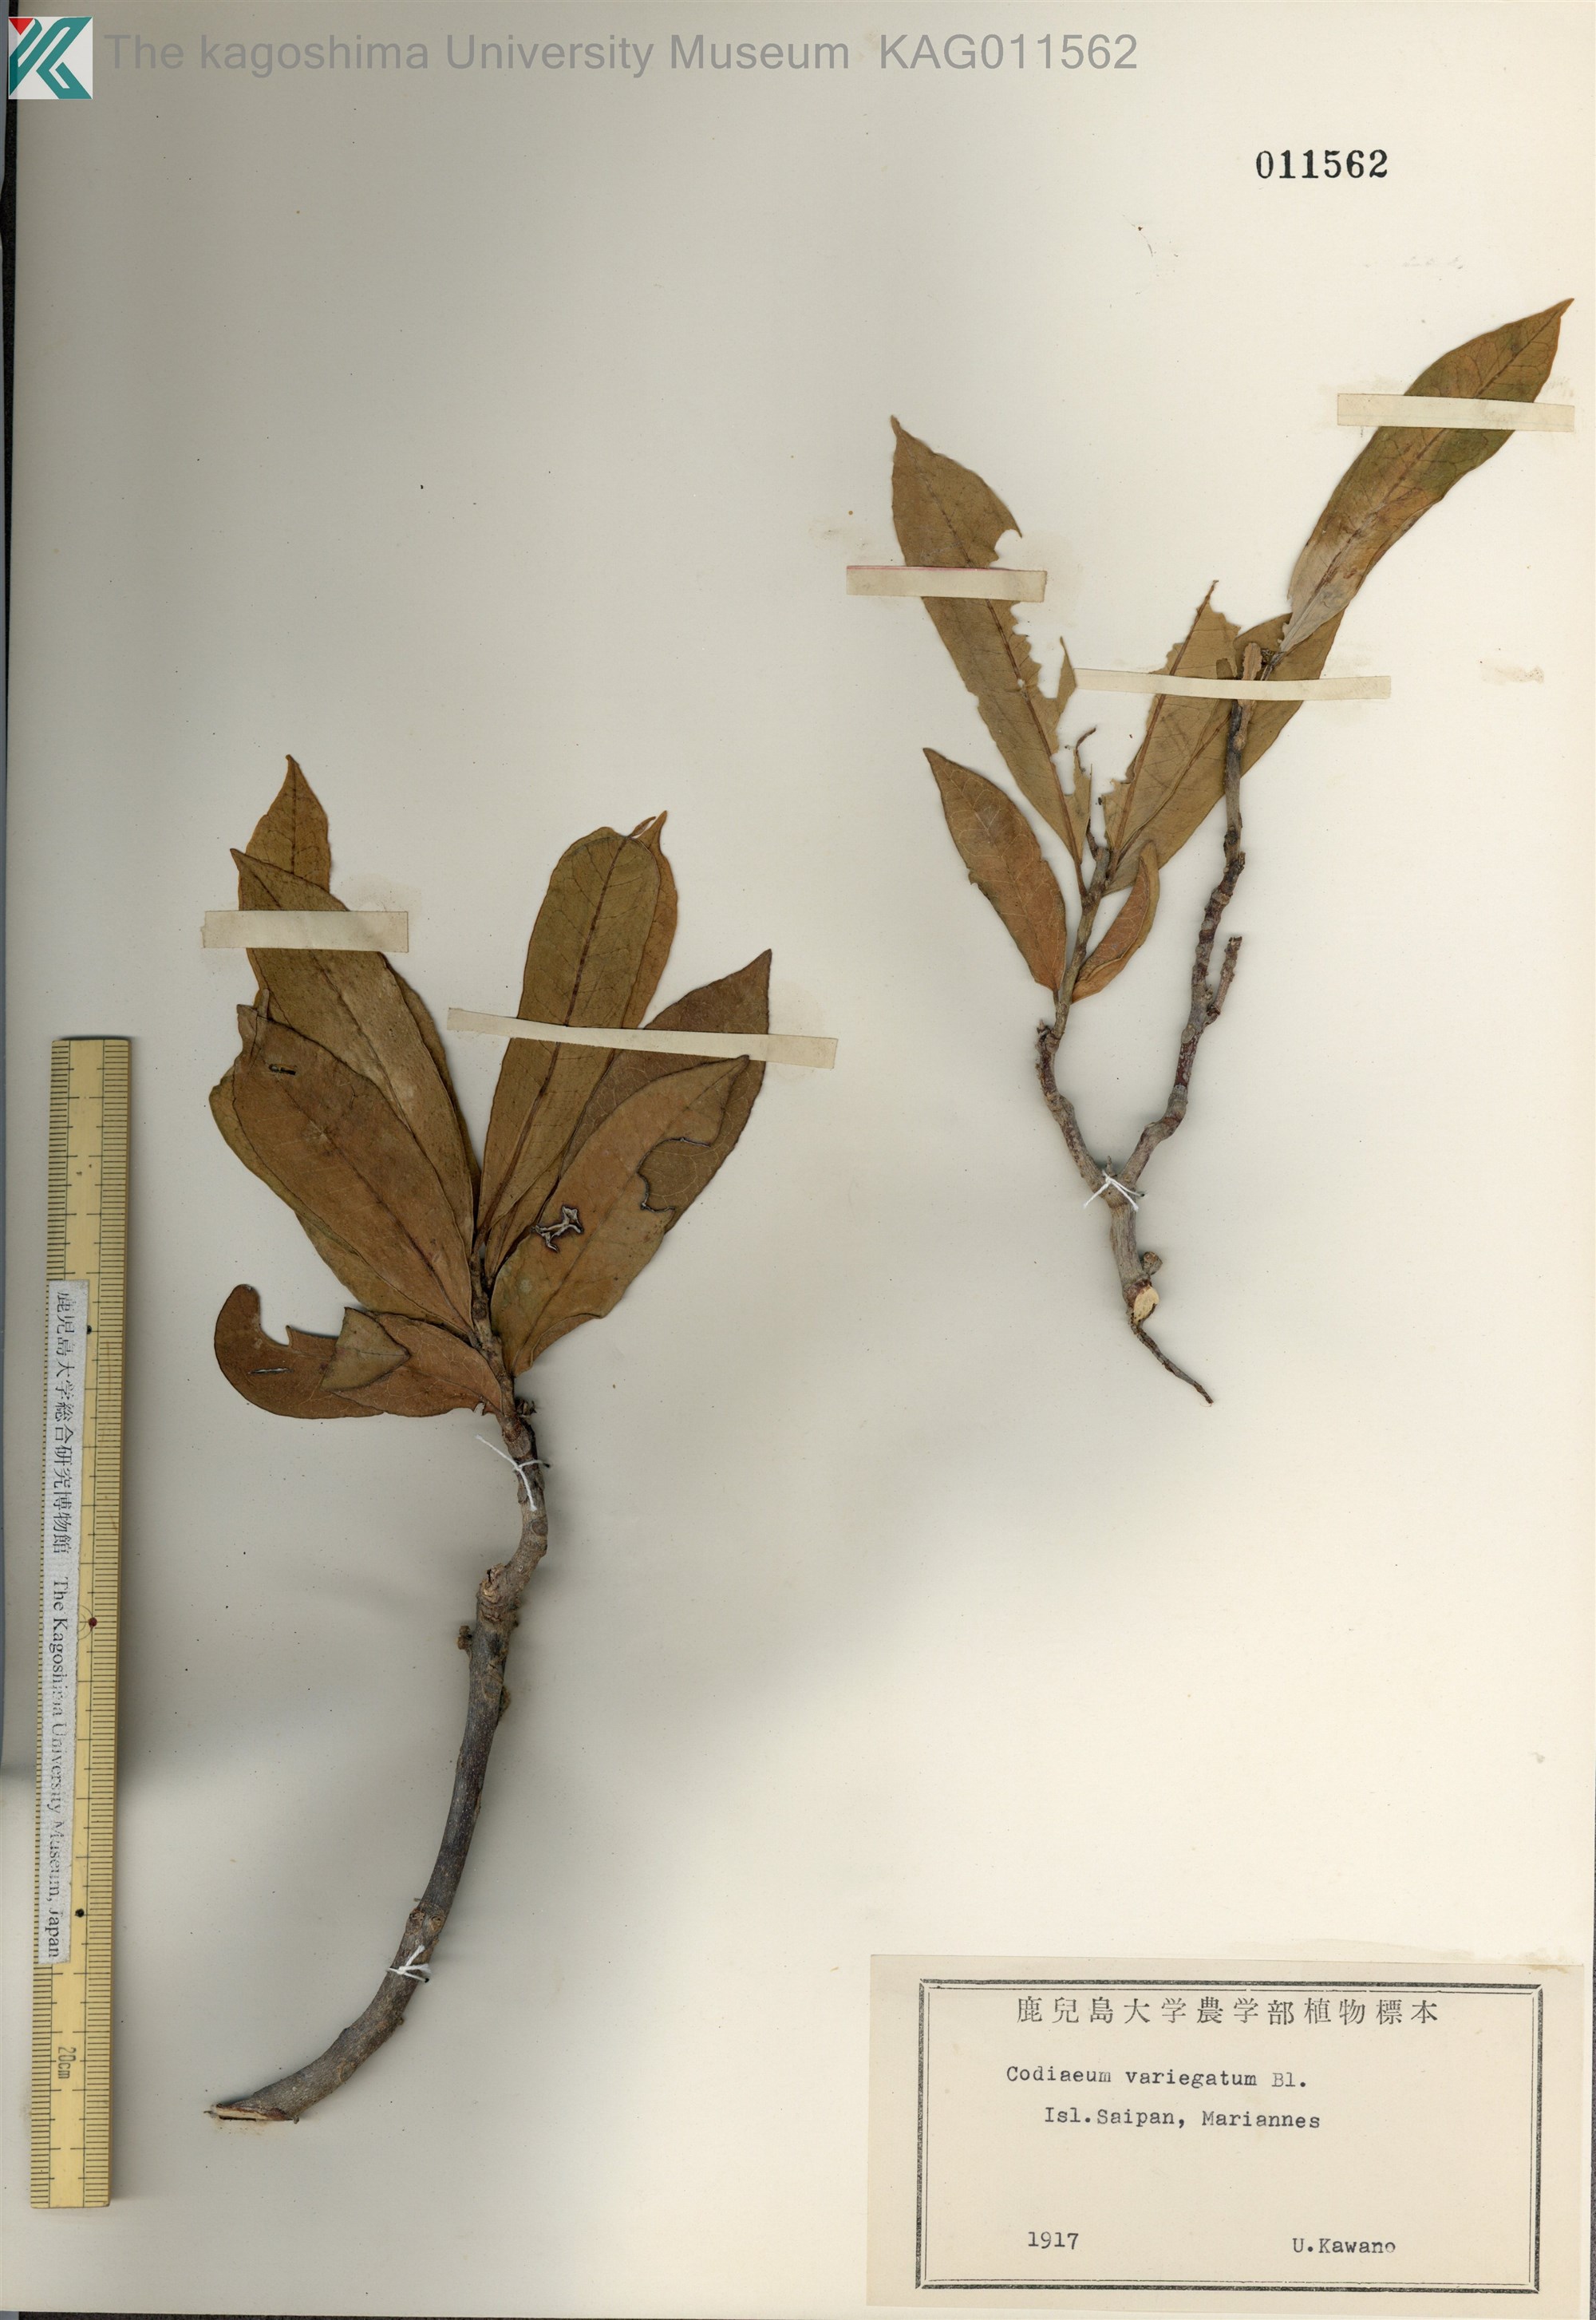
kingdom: Plantae
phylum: Tracheophyta
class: Magnoliopsida
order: Malpighiales
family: Euphorbiaceae
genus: Codiaeum
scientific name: Codiaeum variegatum
